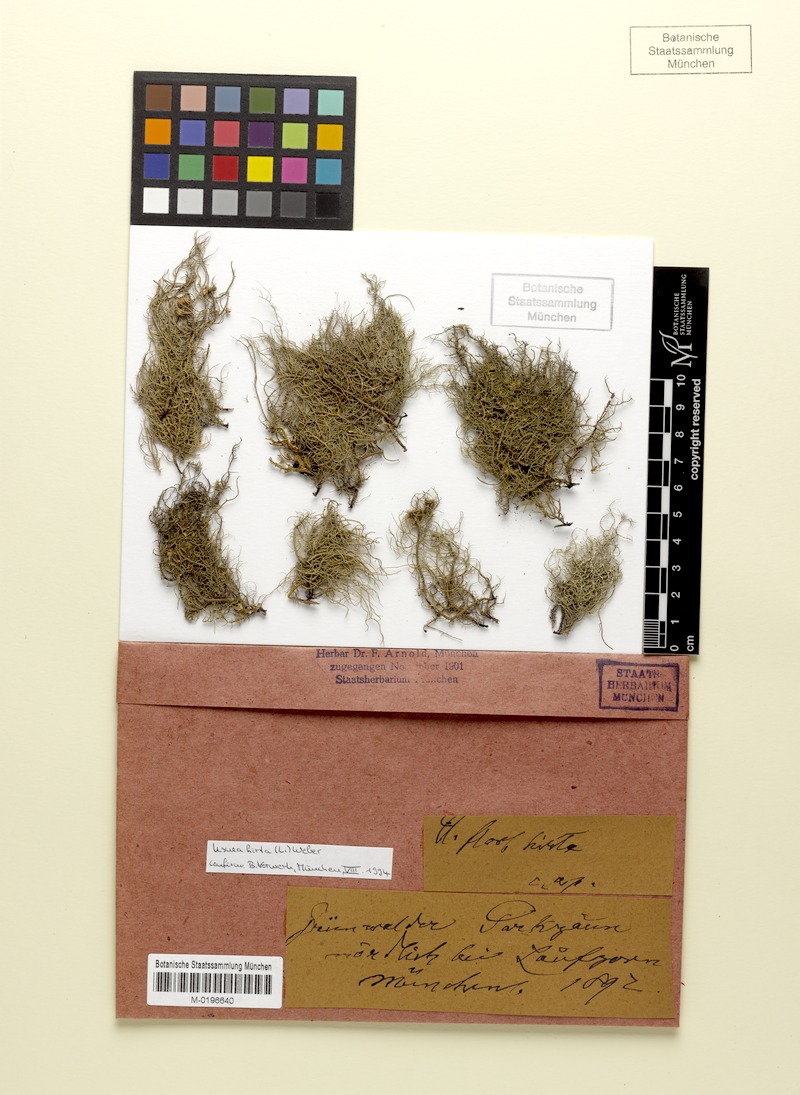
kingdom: Fungi
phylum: Ascomycota
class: Lecanoromycetes
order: Lecanorales
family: Parmeliaceae
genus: Usnea
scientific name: Usnea hirta
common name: Bristly beard lichen
